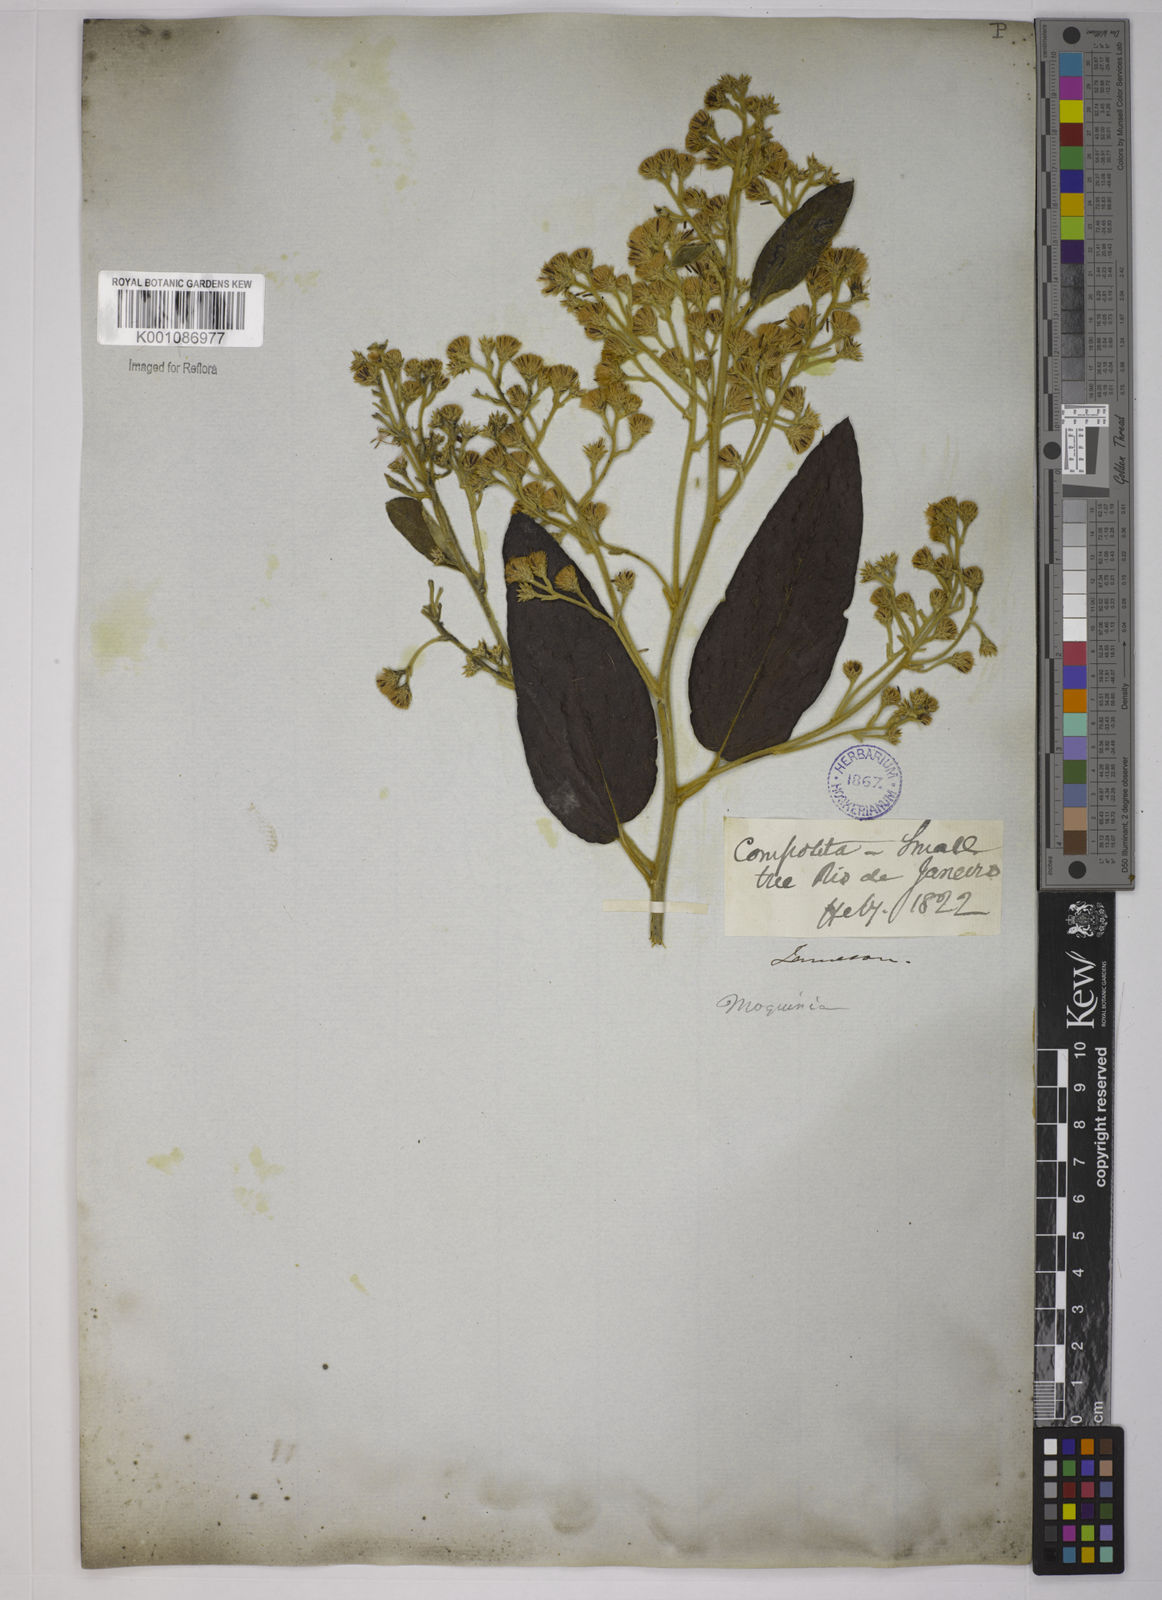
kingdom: Plantae
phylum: Tracheophyta
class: Magnoliopsida
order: Asterales
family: Asteraceae
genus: Moquiniastrum
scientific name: Moquiniastrum polymorphum
